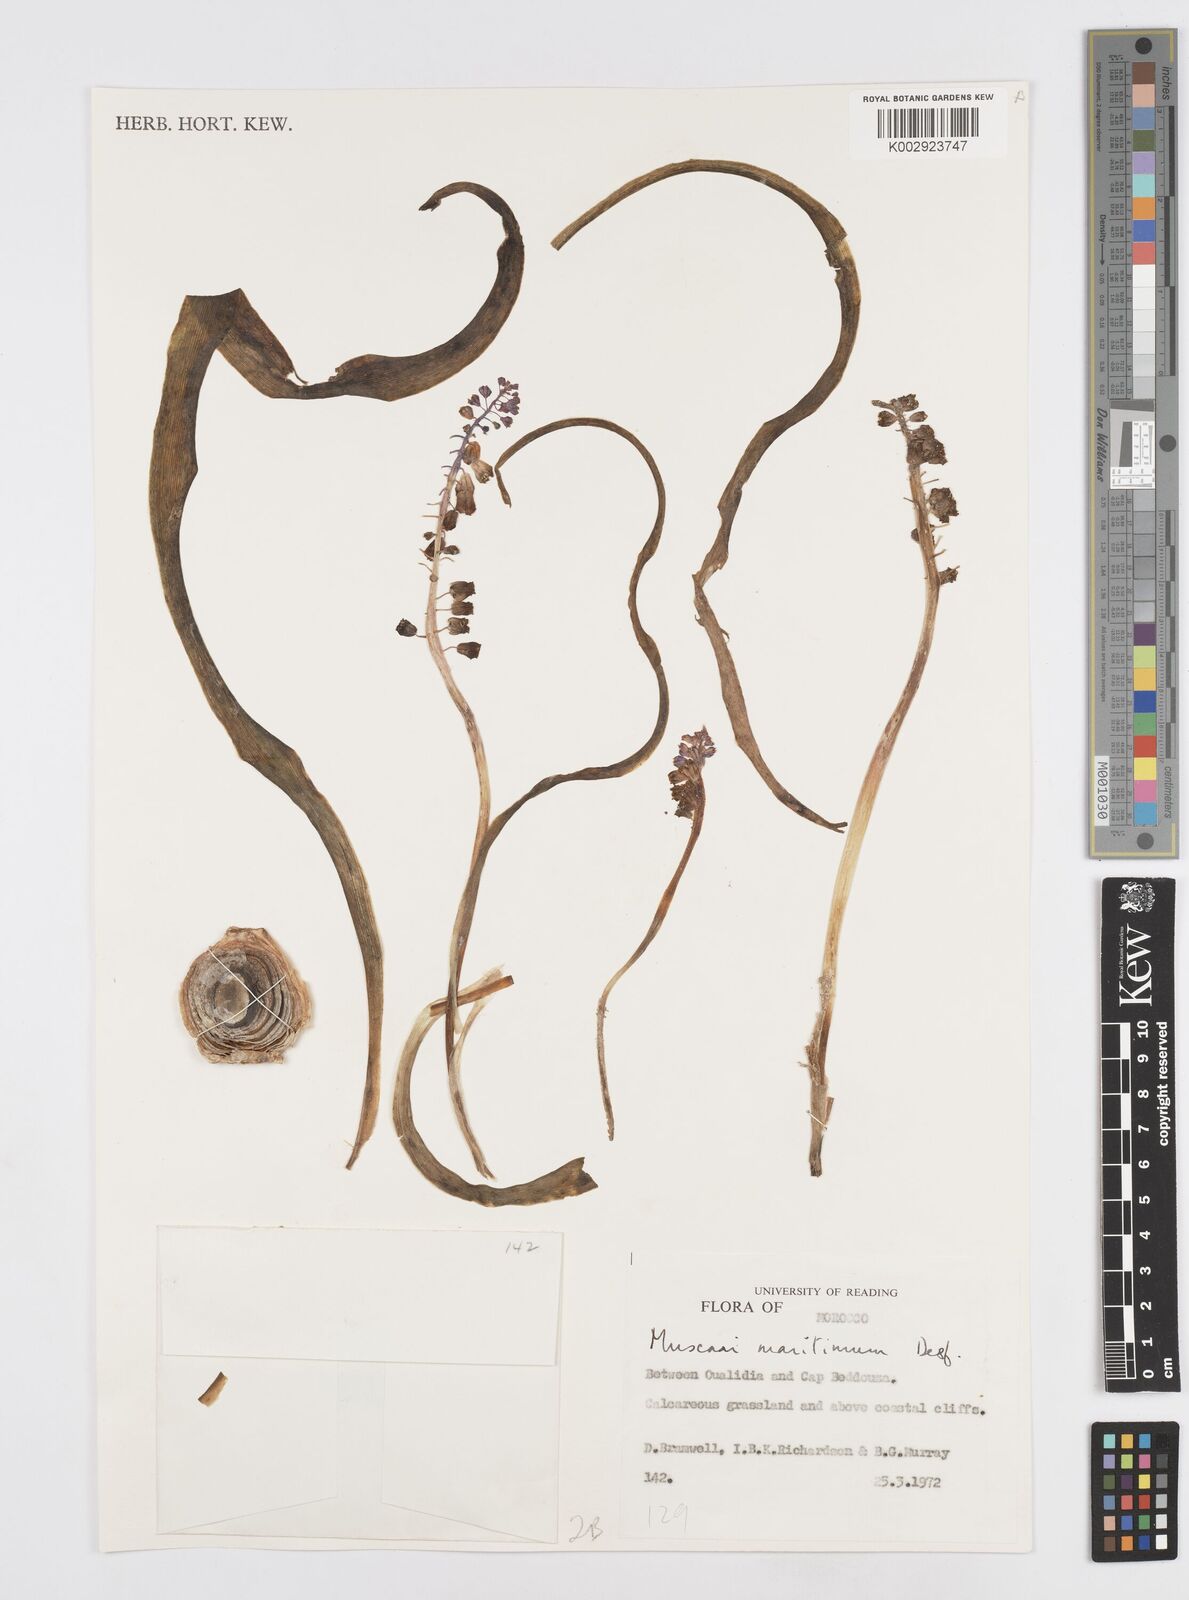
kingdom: Plantae
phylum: Tracheophyta
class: Liliopsida
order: Asparagales
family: Asparagaceae
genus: Muscari
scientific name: Muscari maritimum
